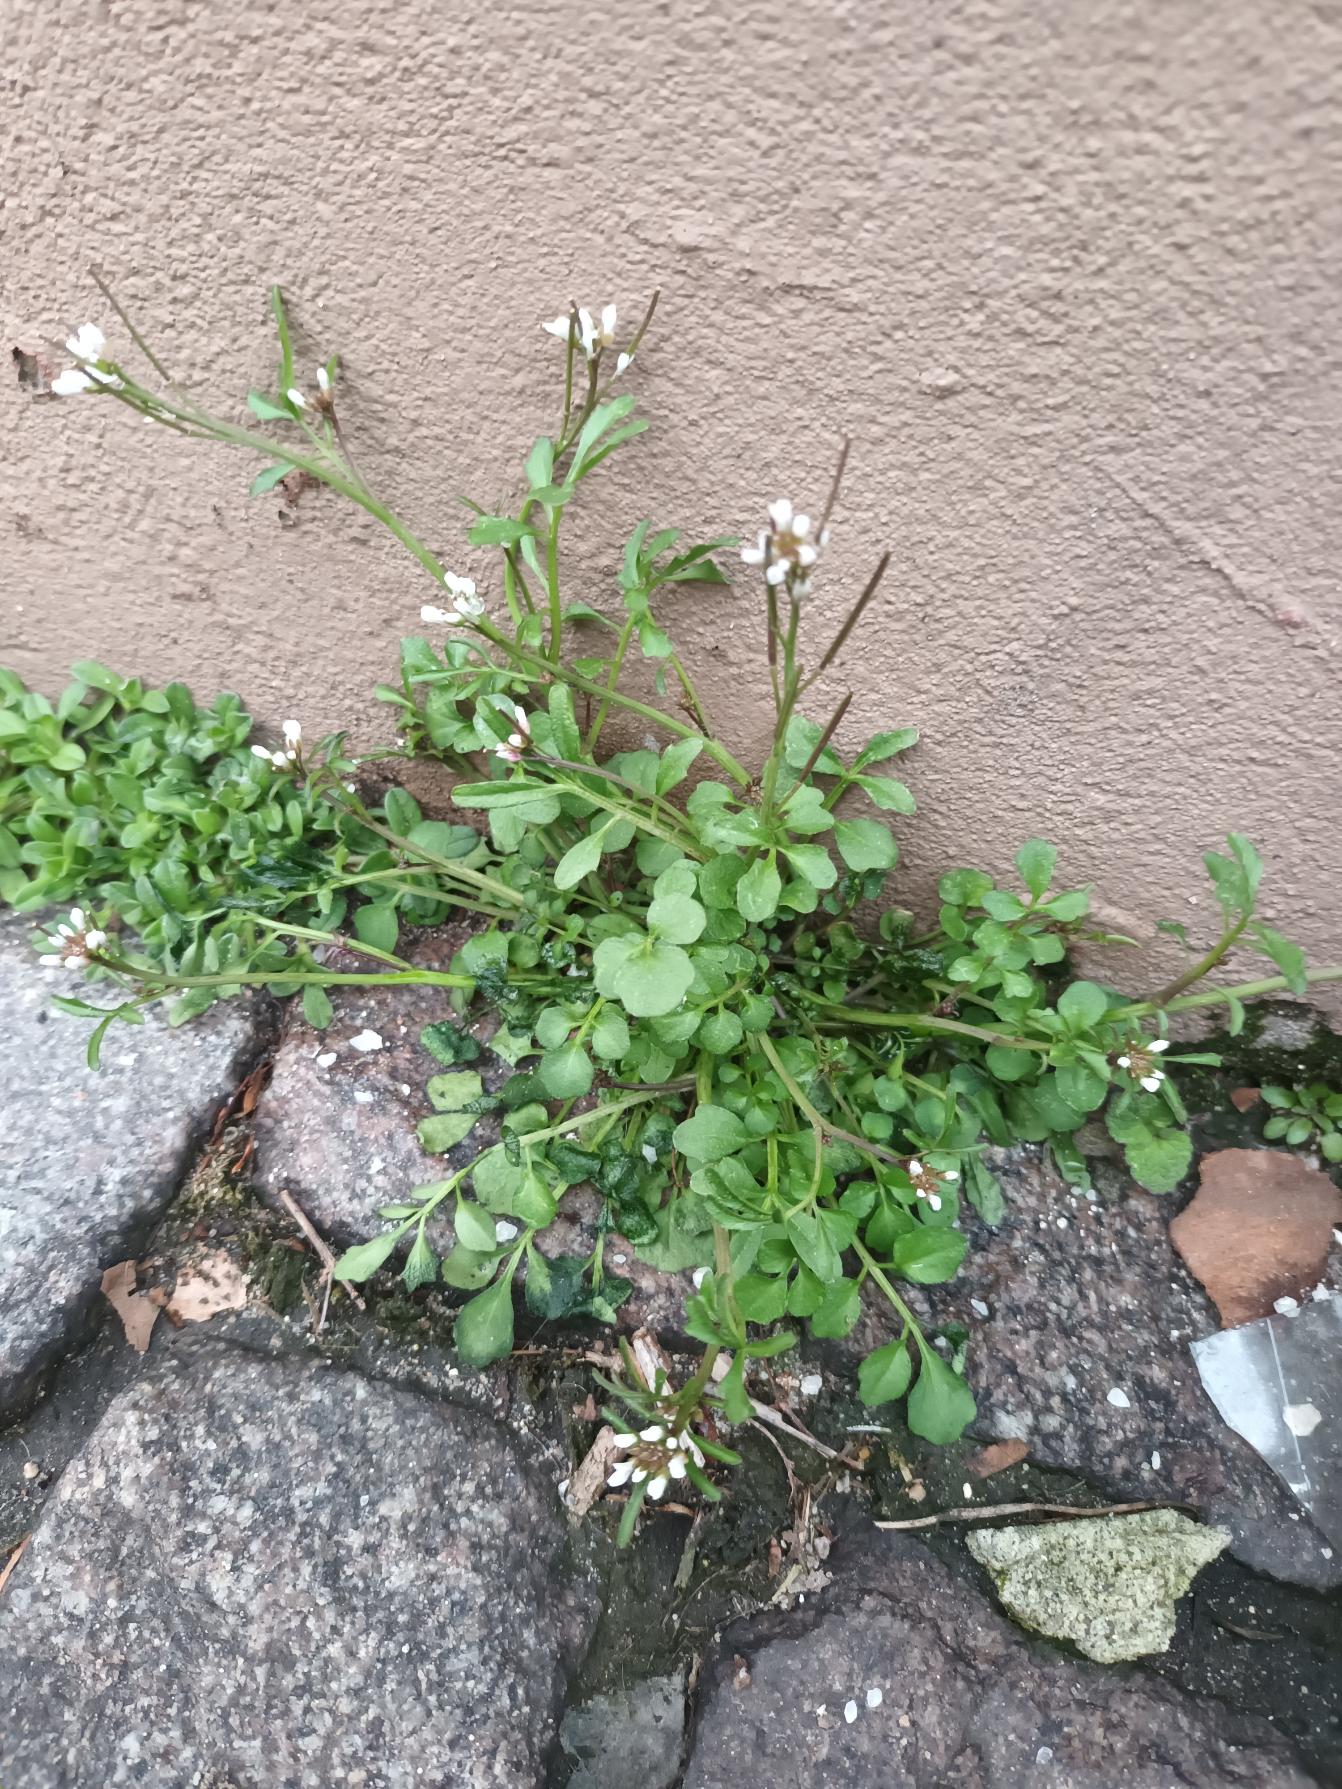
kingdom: Plantae
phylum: Tracheophyta
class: Magnoliopsida
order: Brassicales
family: Brassicaceae
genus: Cardamine
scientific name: Cardamine hirsuta
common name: Roset-springklap
